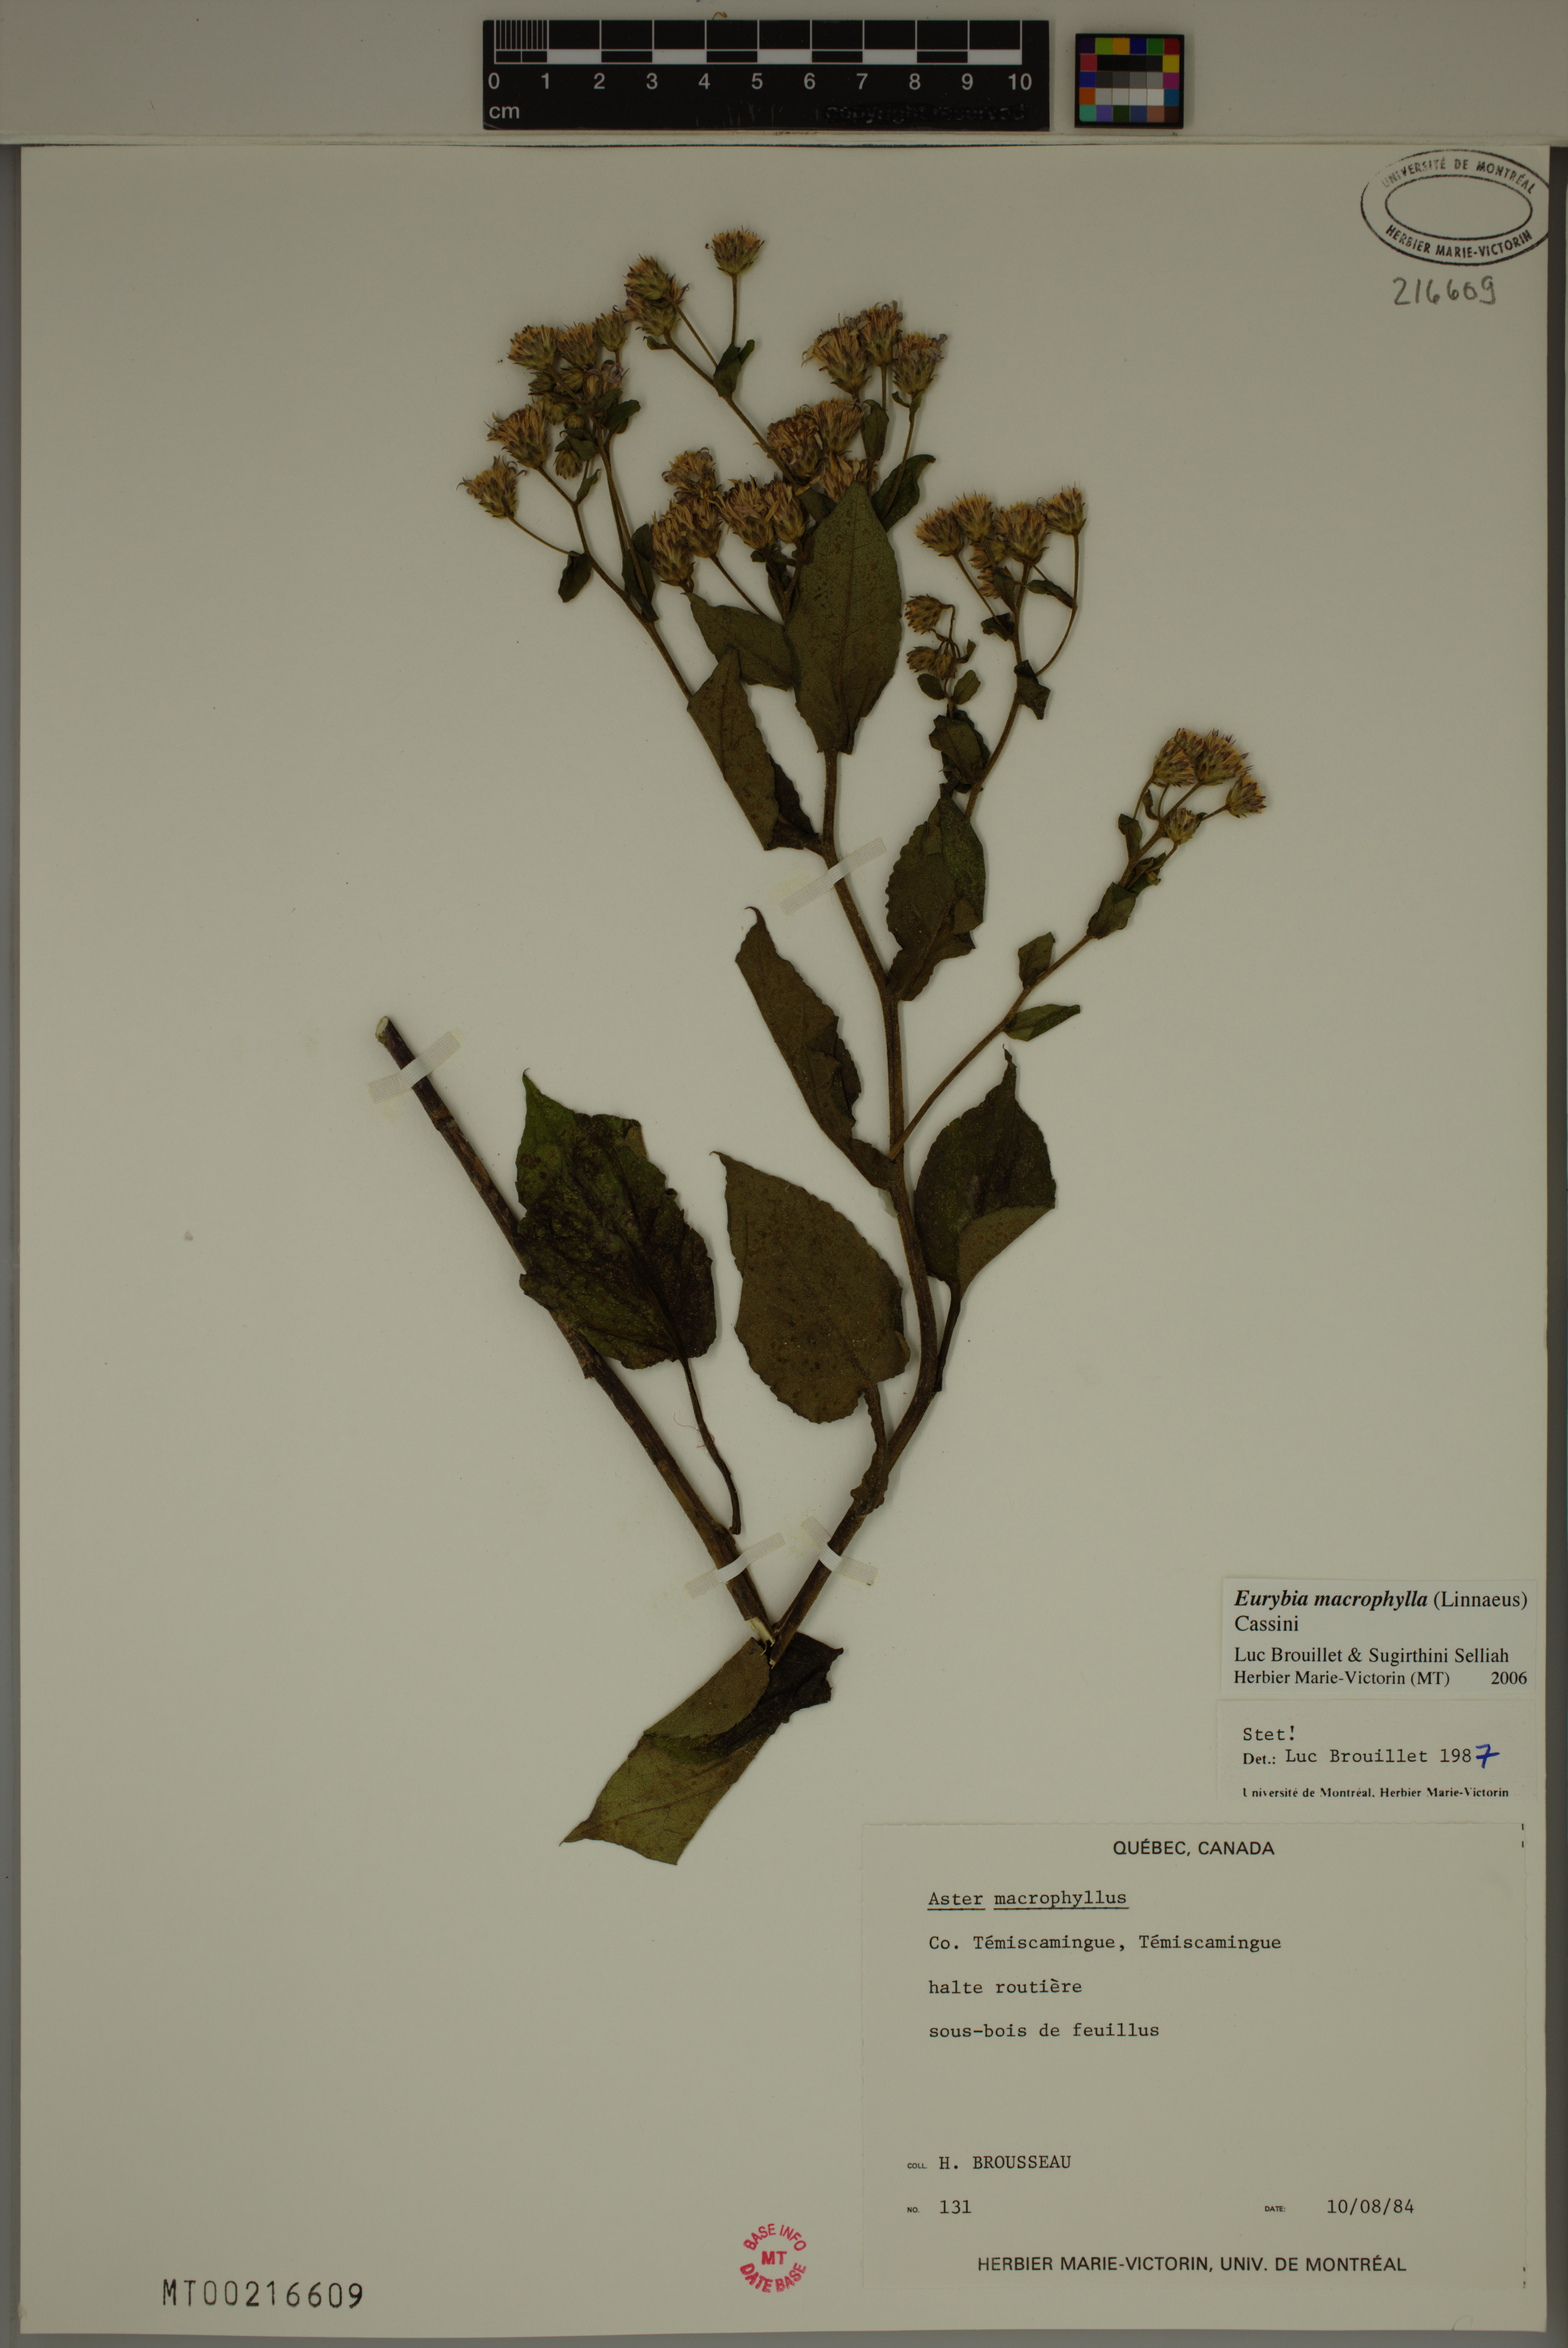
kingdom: Plantae
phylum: Tracheophyta
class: Magnoliopsida
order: Asterales
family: Asteraceae
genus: Eurybia
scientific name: Eurybia macrophylla
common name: Big-leaved aster
